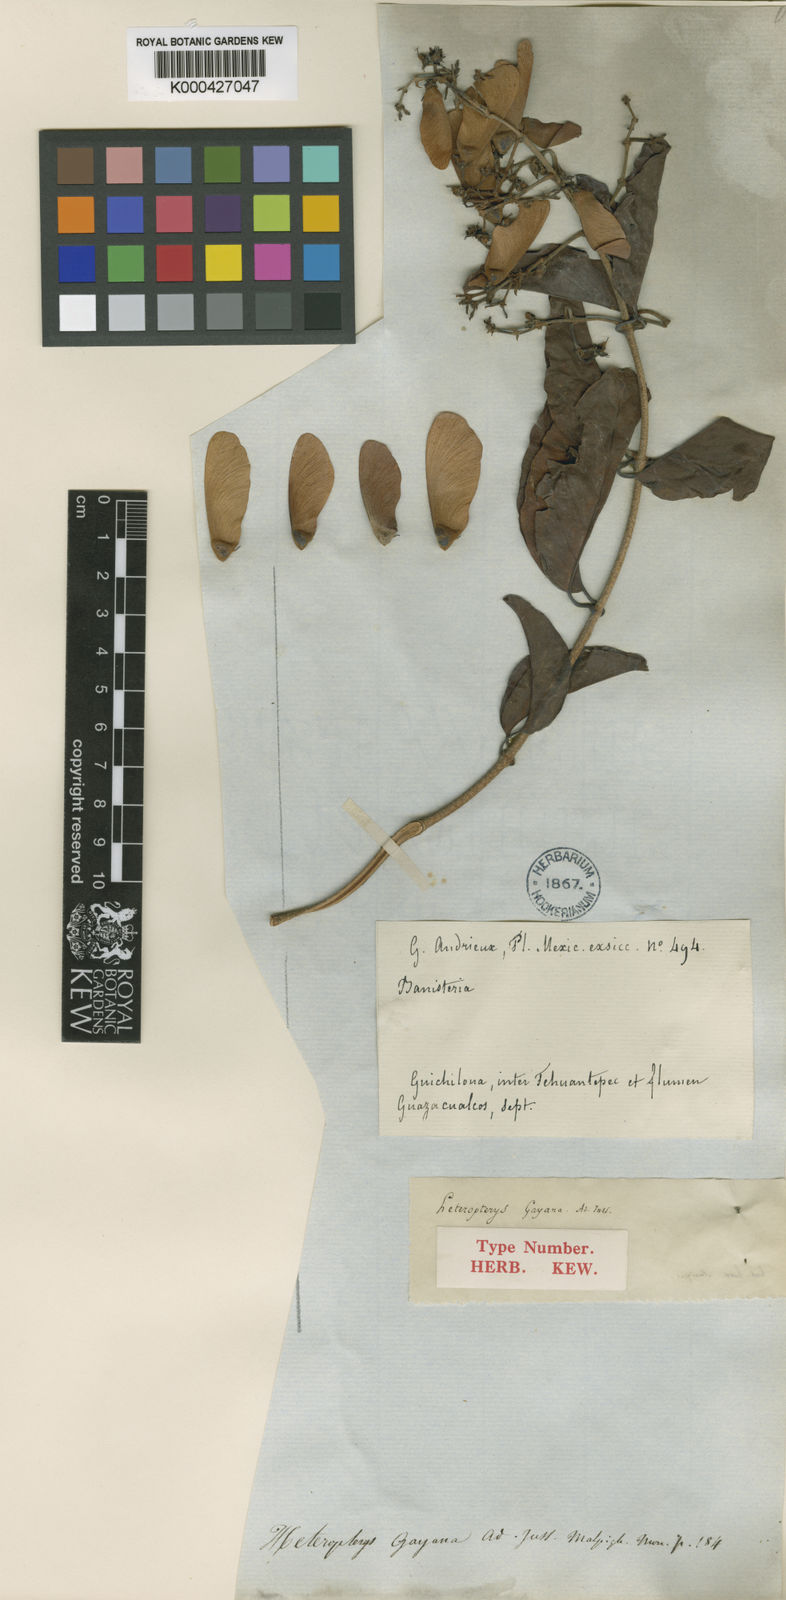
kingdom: Plantae
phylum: Tracheophyta
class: Magnoliopsida
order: Malpighiales
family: Malpighiaceae
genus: Heteropterys
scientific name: Heteropterys cotinifolia
